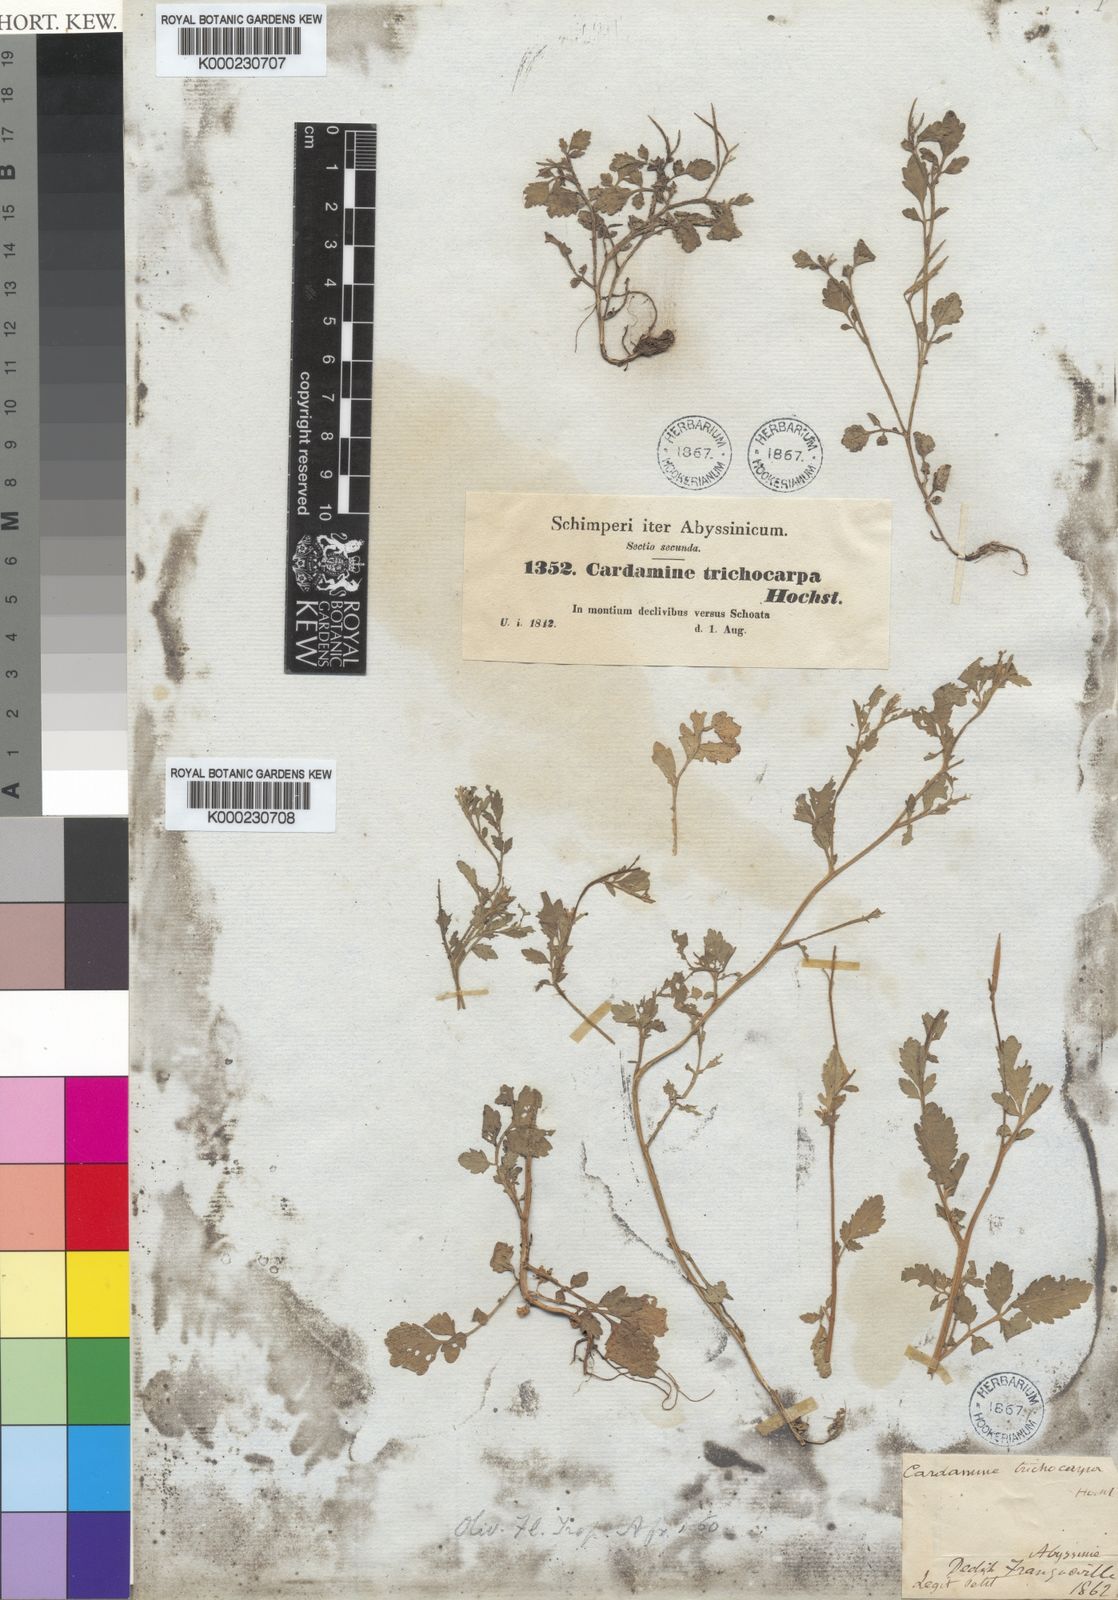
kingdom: Plantae
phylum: Tracheophyta
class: Magnoliopsida
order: Brassicales
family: Brassicaceae
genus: Cardamine
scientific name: Cardamine trichocarpa
